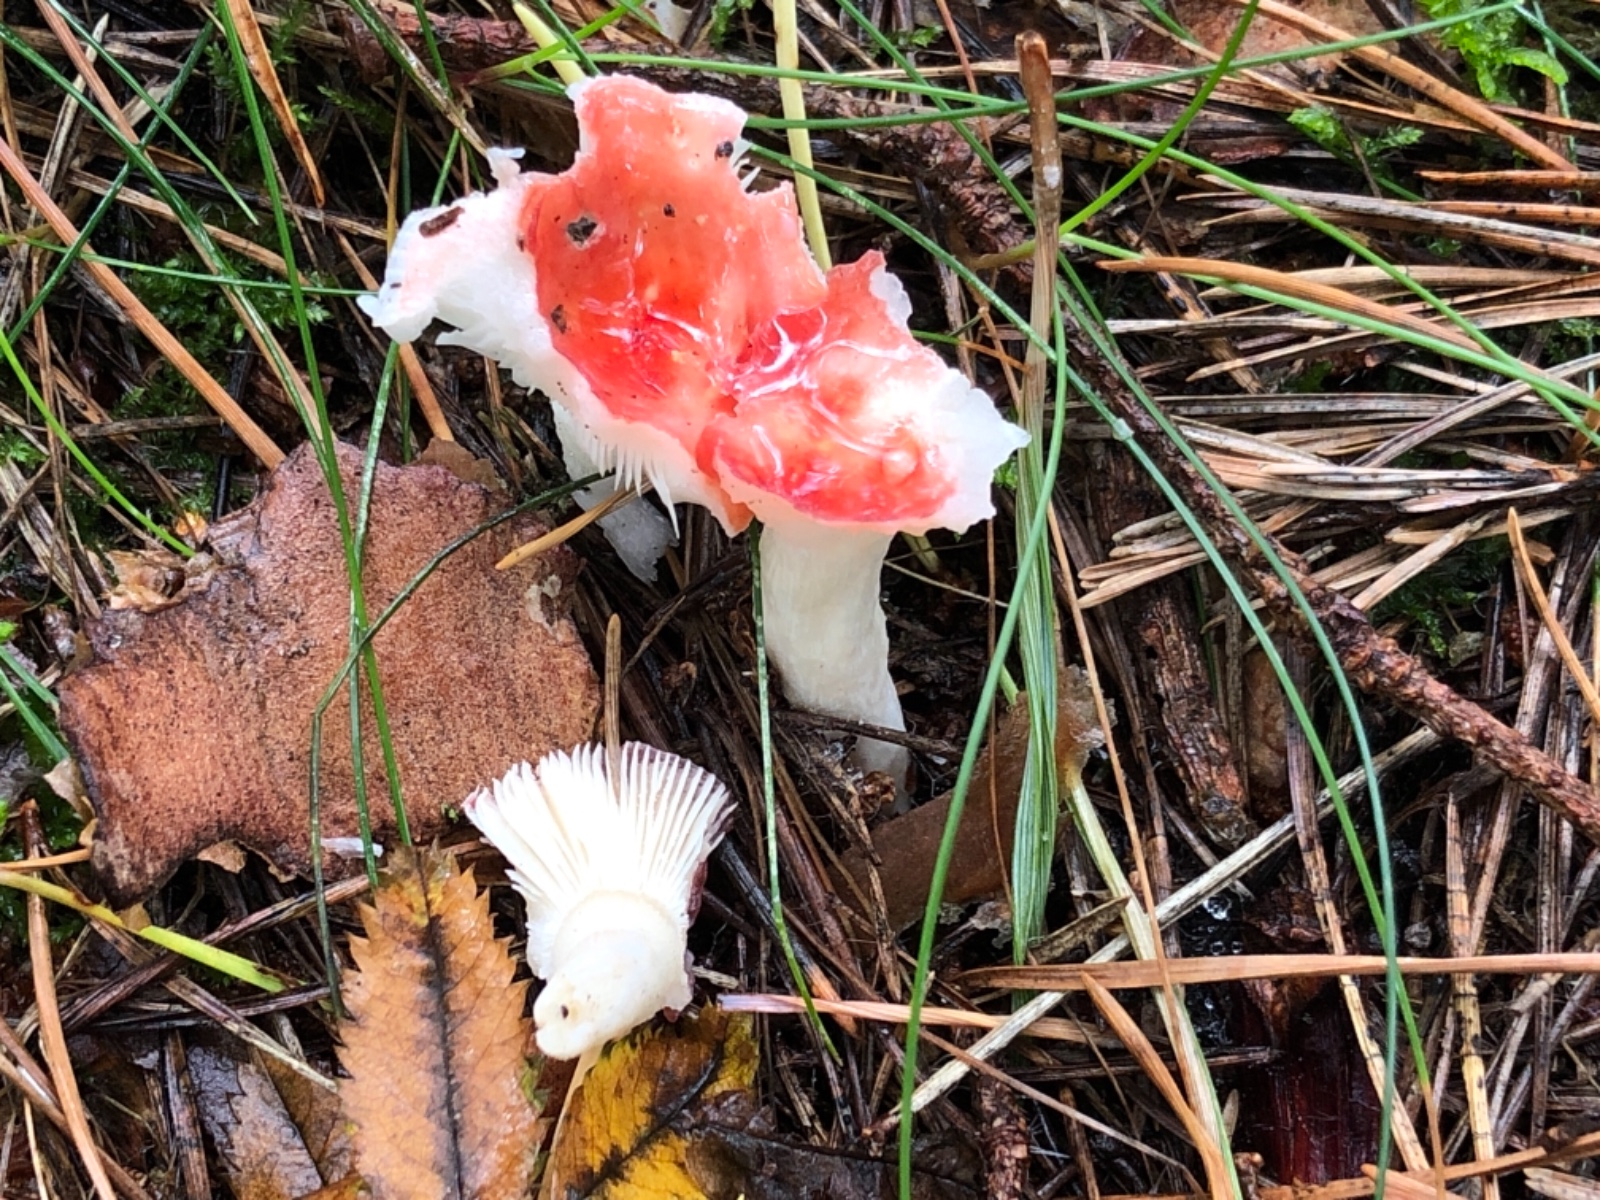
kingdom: Fungi
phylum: Basidiomycota
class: Agaricomycetes
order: Russulales
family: Russulaceae
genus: Russula
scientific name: Russula emetica
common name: stor gift-skørhat
